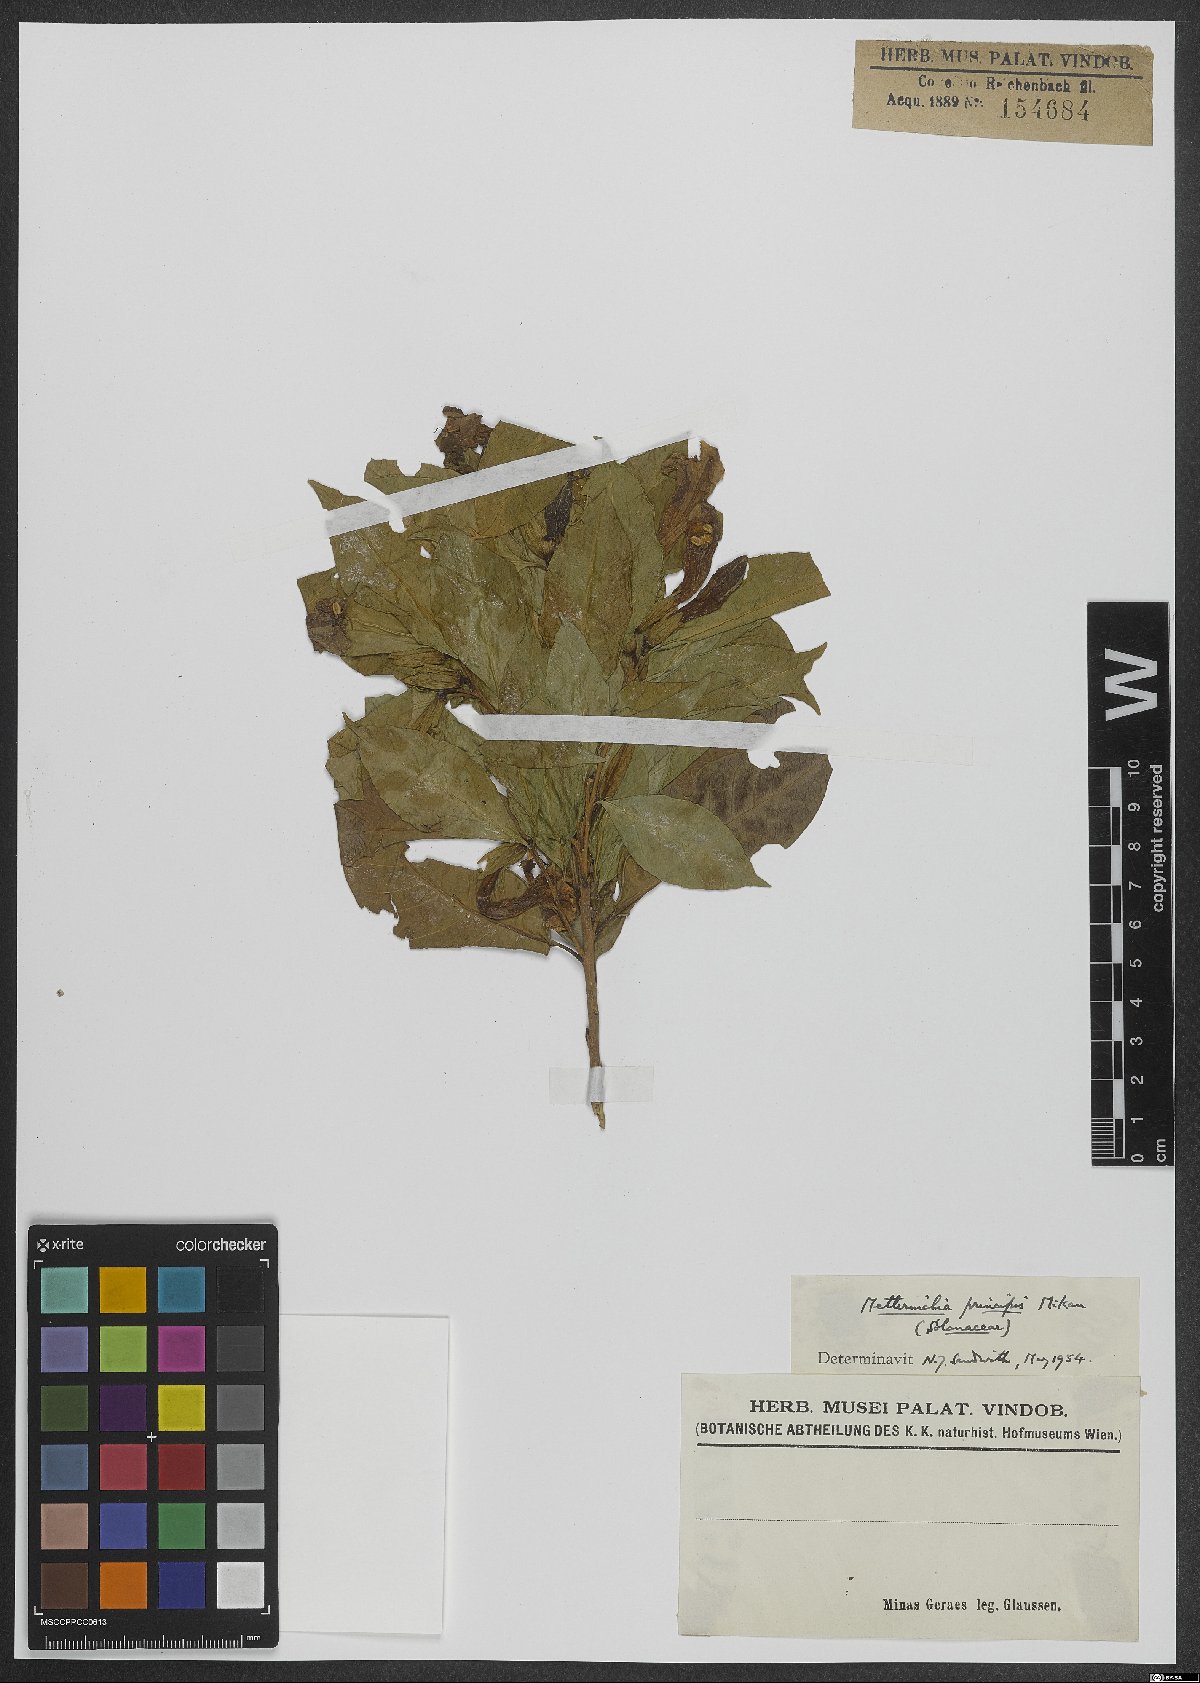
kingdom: Plantae
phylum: Tracheophyta
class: Magnoliopsida
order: Solanales
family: Solanaceae
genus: Metternichia
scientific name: Metternichia principis
